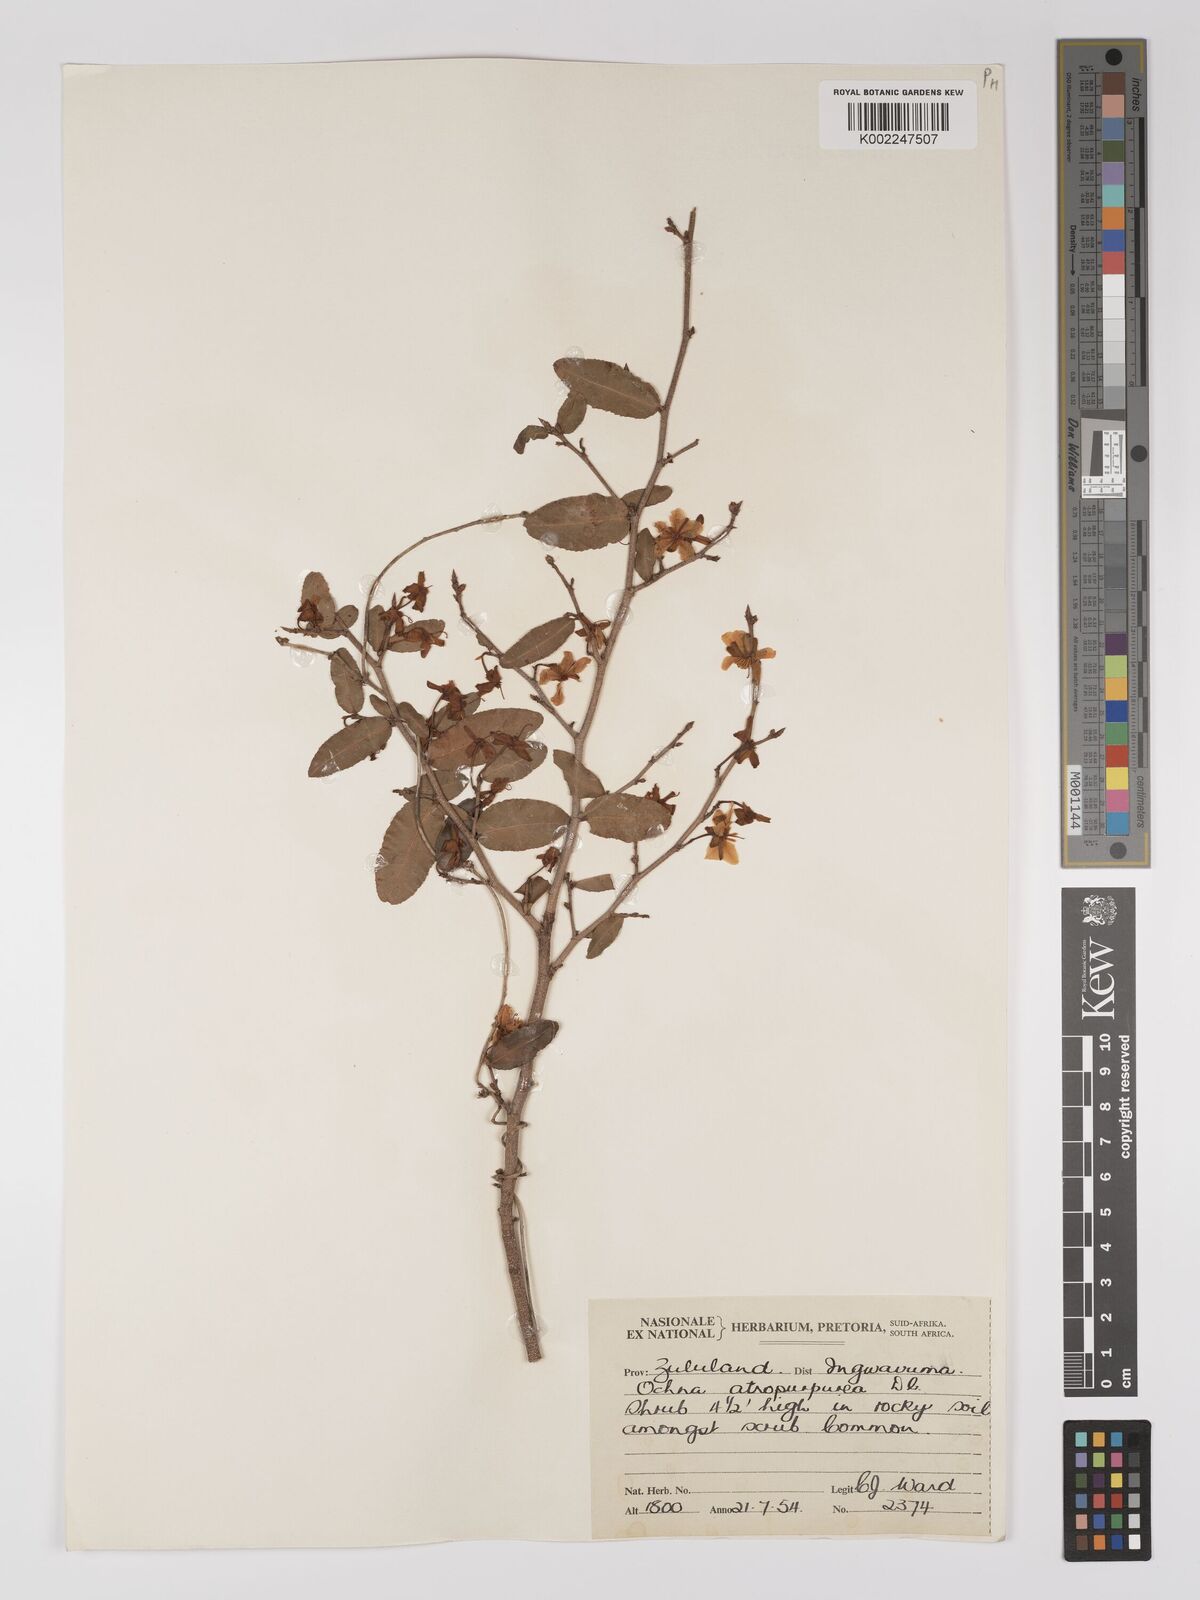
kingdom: Plantae
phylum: Tracheophyta
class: Magnoliopsida
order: Malpighiales
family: Ochnaceae
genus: Ochna
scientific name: Ochna serrulata
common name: Mickey mouse plant
